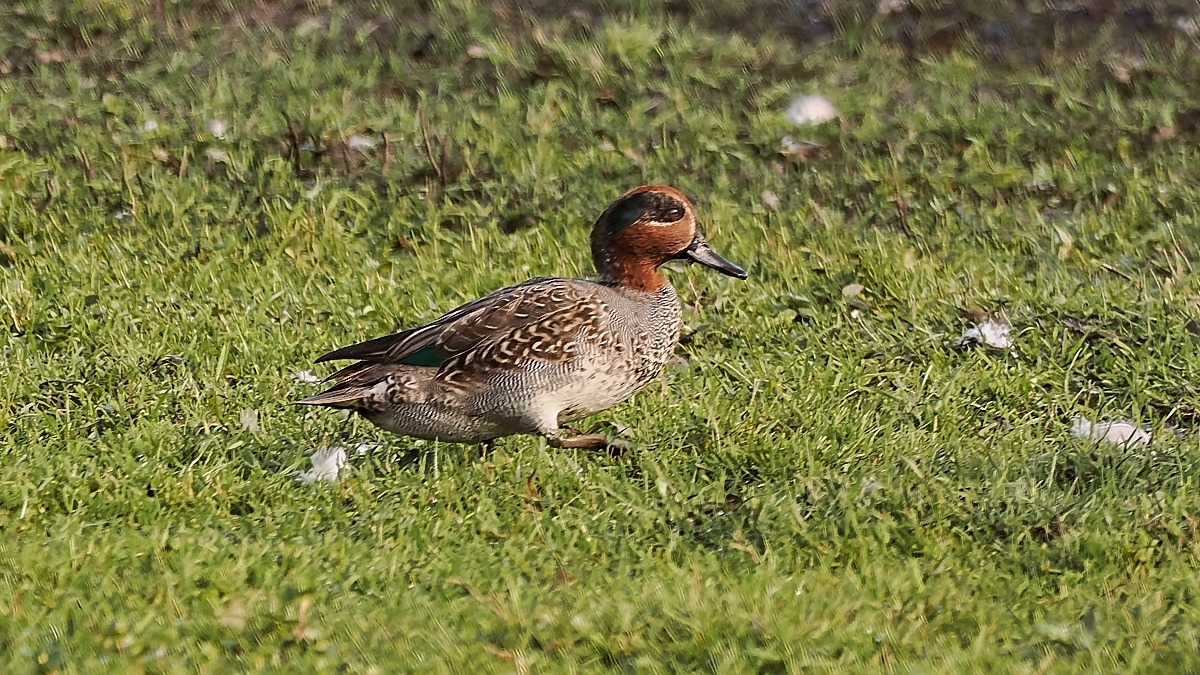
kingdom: Animalia
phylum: Chordata
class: Aves
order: Anseriformes
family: Anatidae
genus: Anas
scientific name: Anas crecca
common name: Krikand
